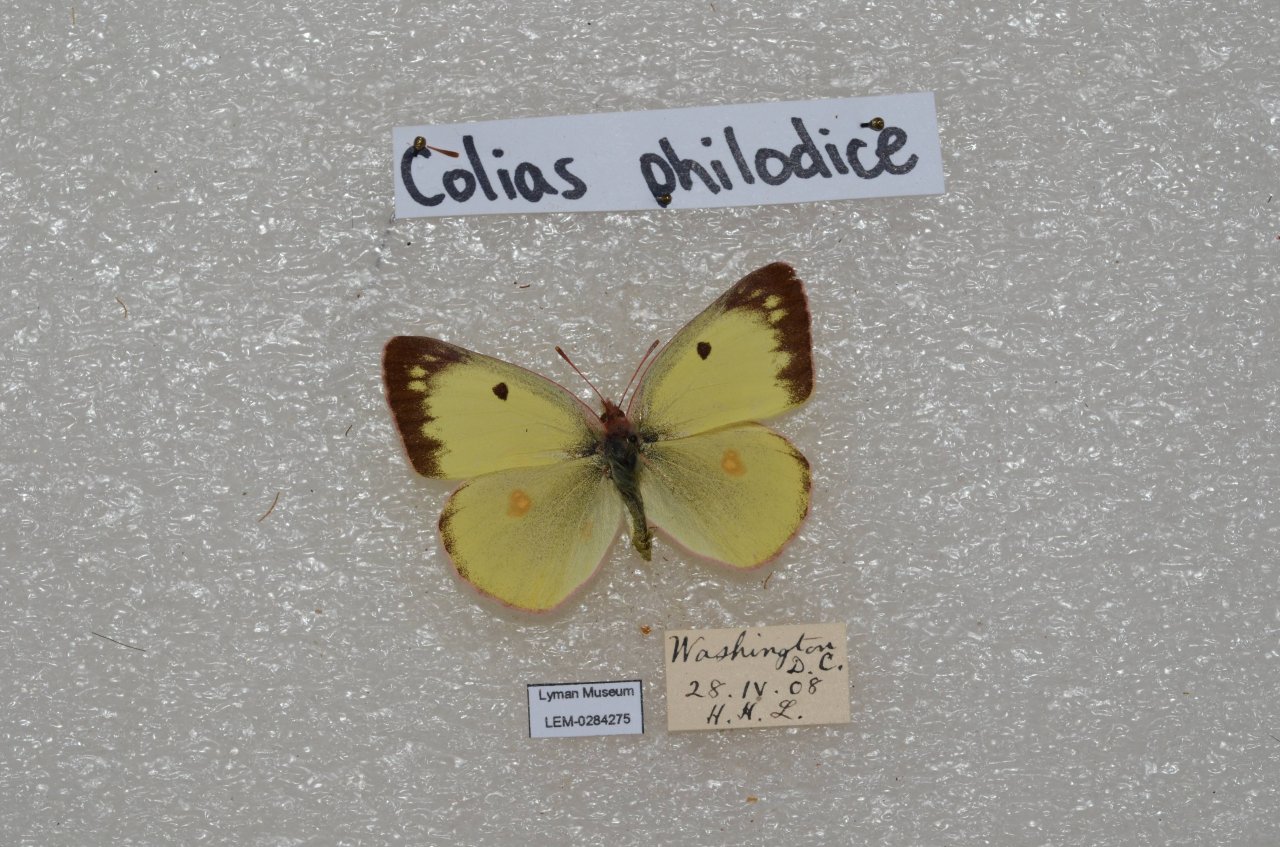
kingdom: Animalia
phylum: Arthropoda
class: Insecta
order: Lepidoptera
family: Pieridae
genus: Colias
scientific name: Colias philodice
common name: Clouded Sulphur
